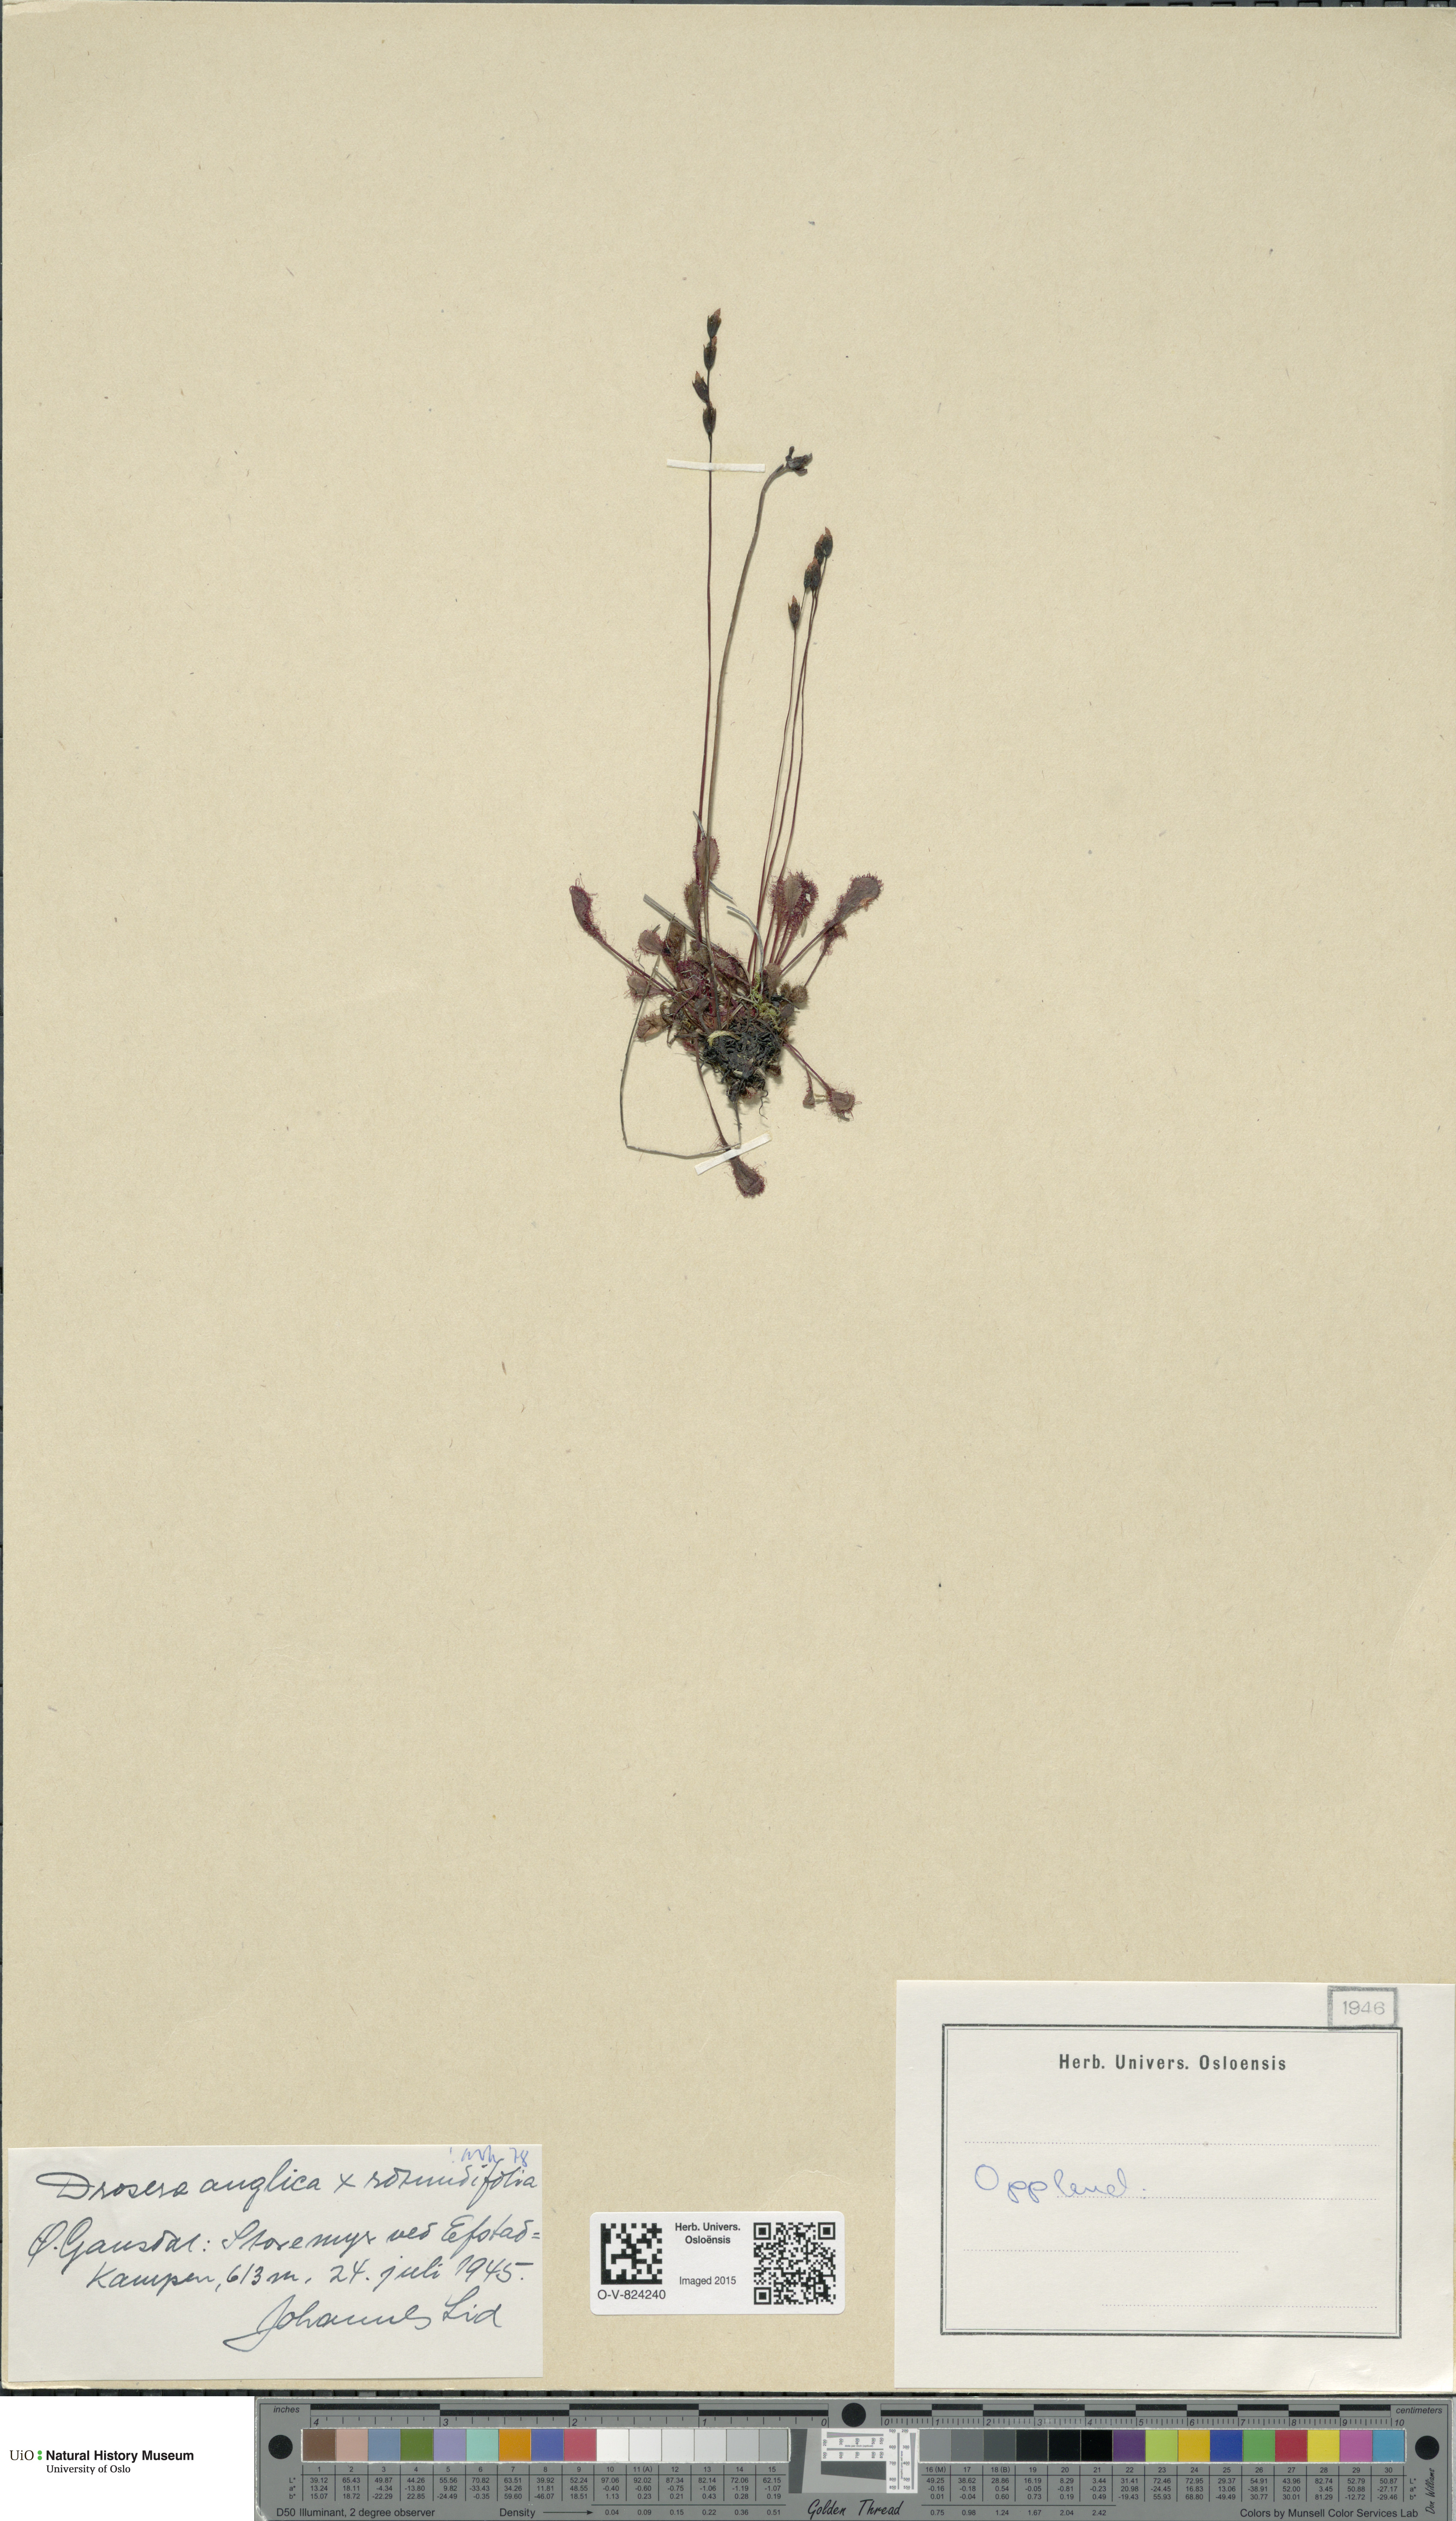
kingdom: Plantae
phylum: Tracheophyta
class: Magnoliopsida
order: Caryophyllales
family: Droseraceae
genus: Drosera
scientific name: Drosera
